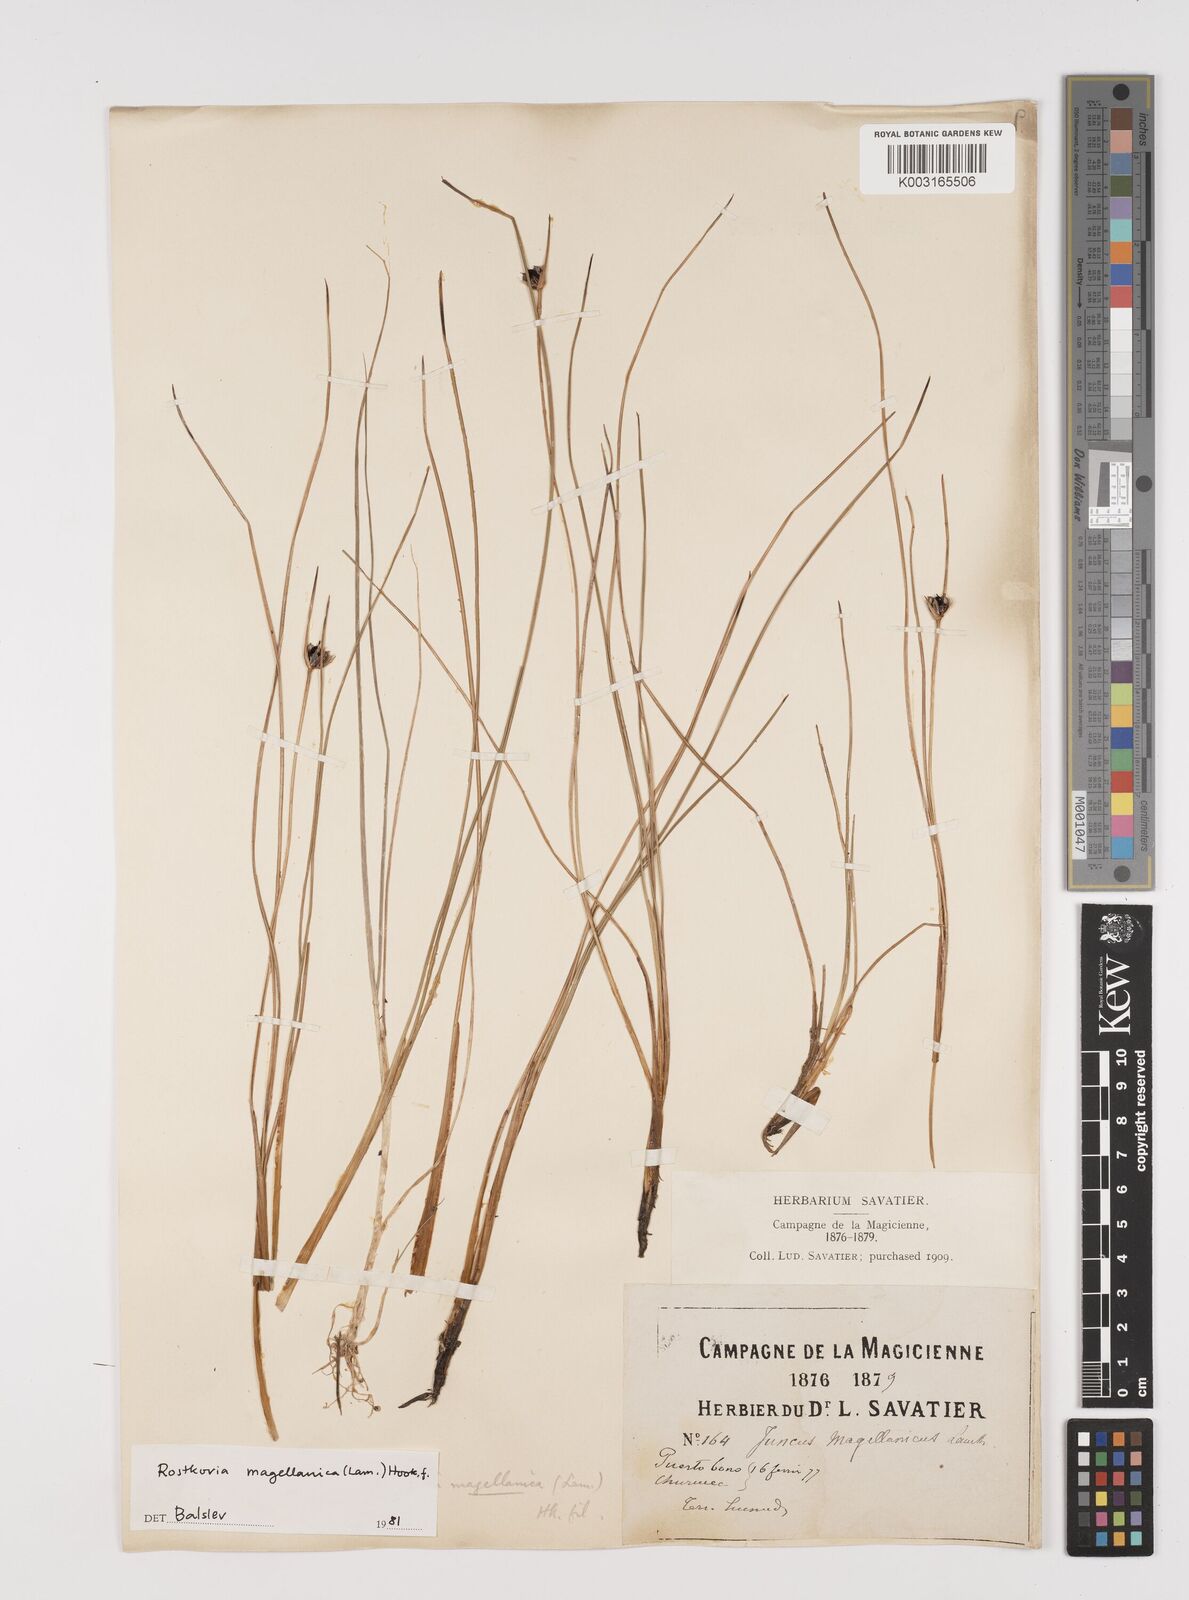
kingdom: Plantae
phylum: Tracheophyta
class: Liliopsida
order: Poales
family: Juncaceae
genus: Rostkovia
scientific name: Rostkovia magellanica
